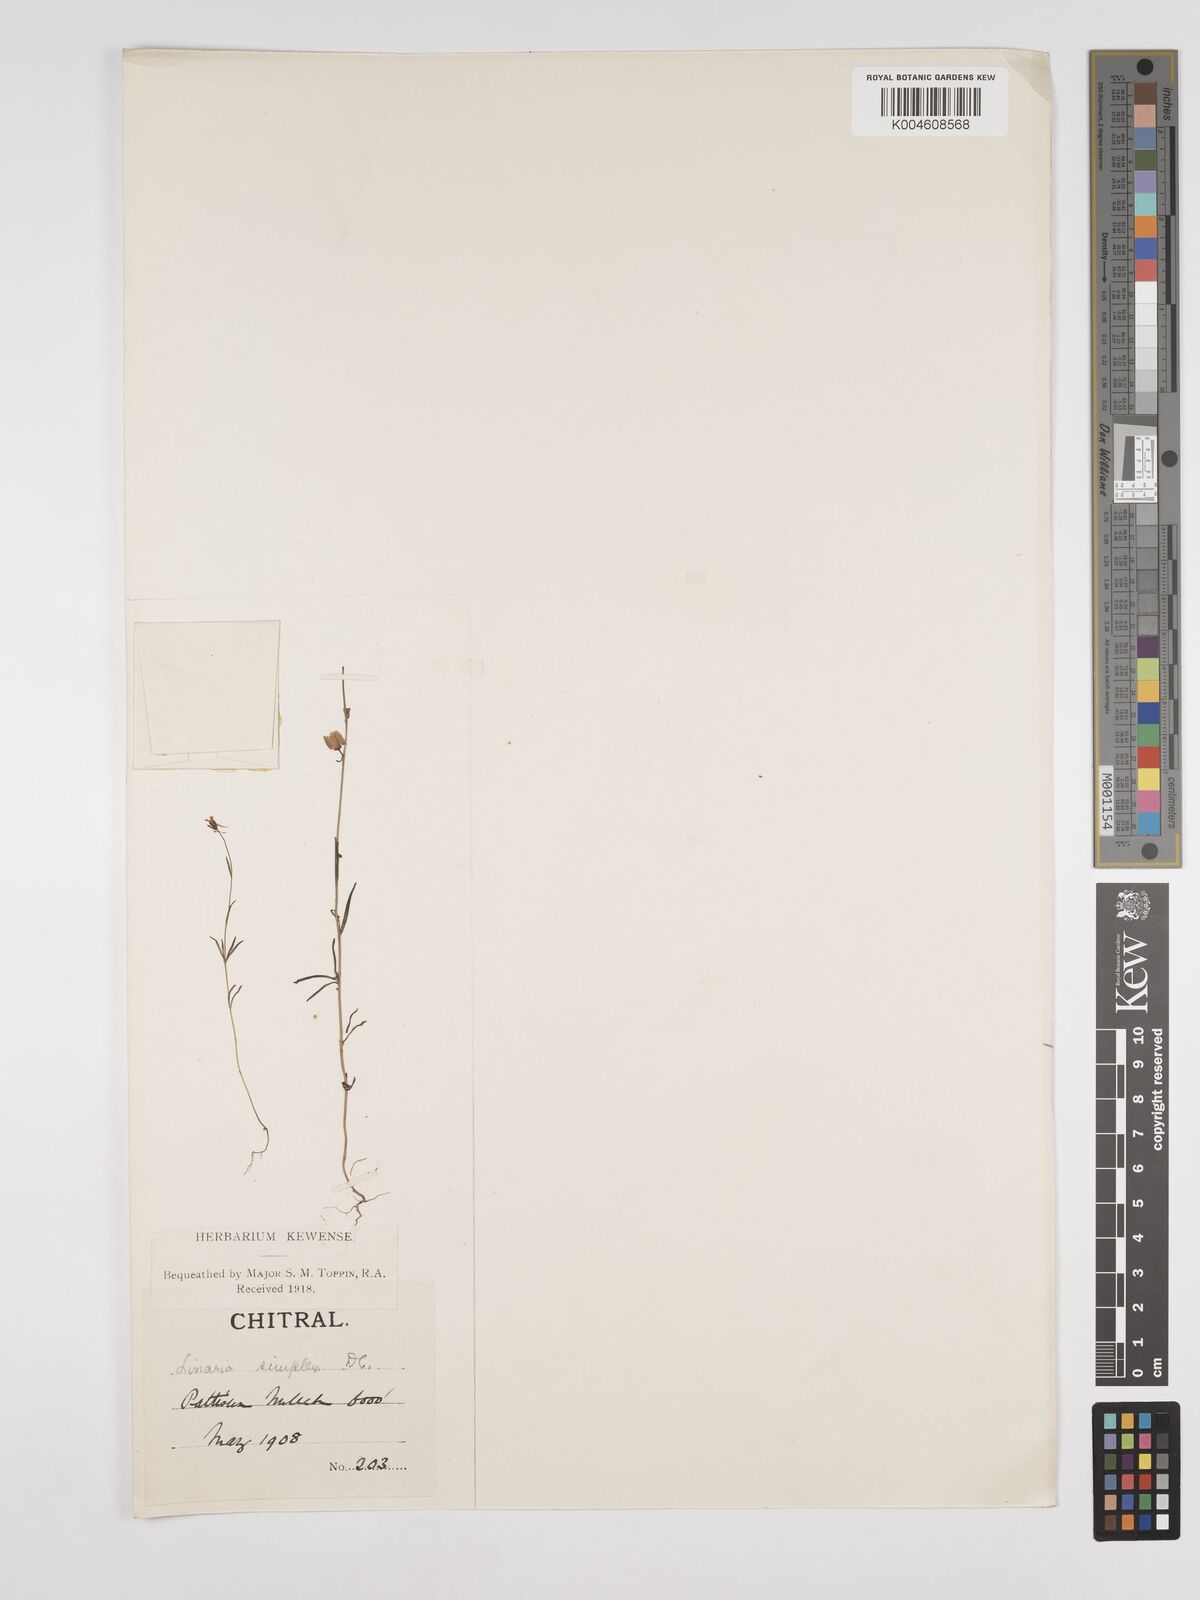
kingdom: Plantae
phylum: Tracheophyta
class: Magnoliopsida
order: Lamiales
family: Plantaginaceae
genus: Kickxia
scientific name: Kickxia
